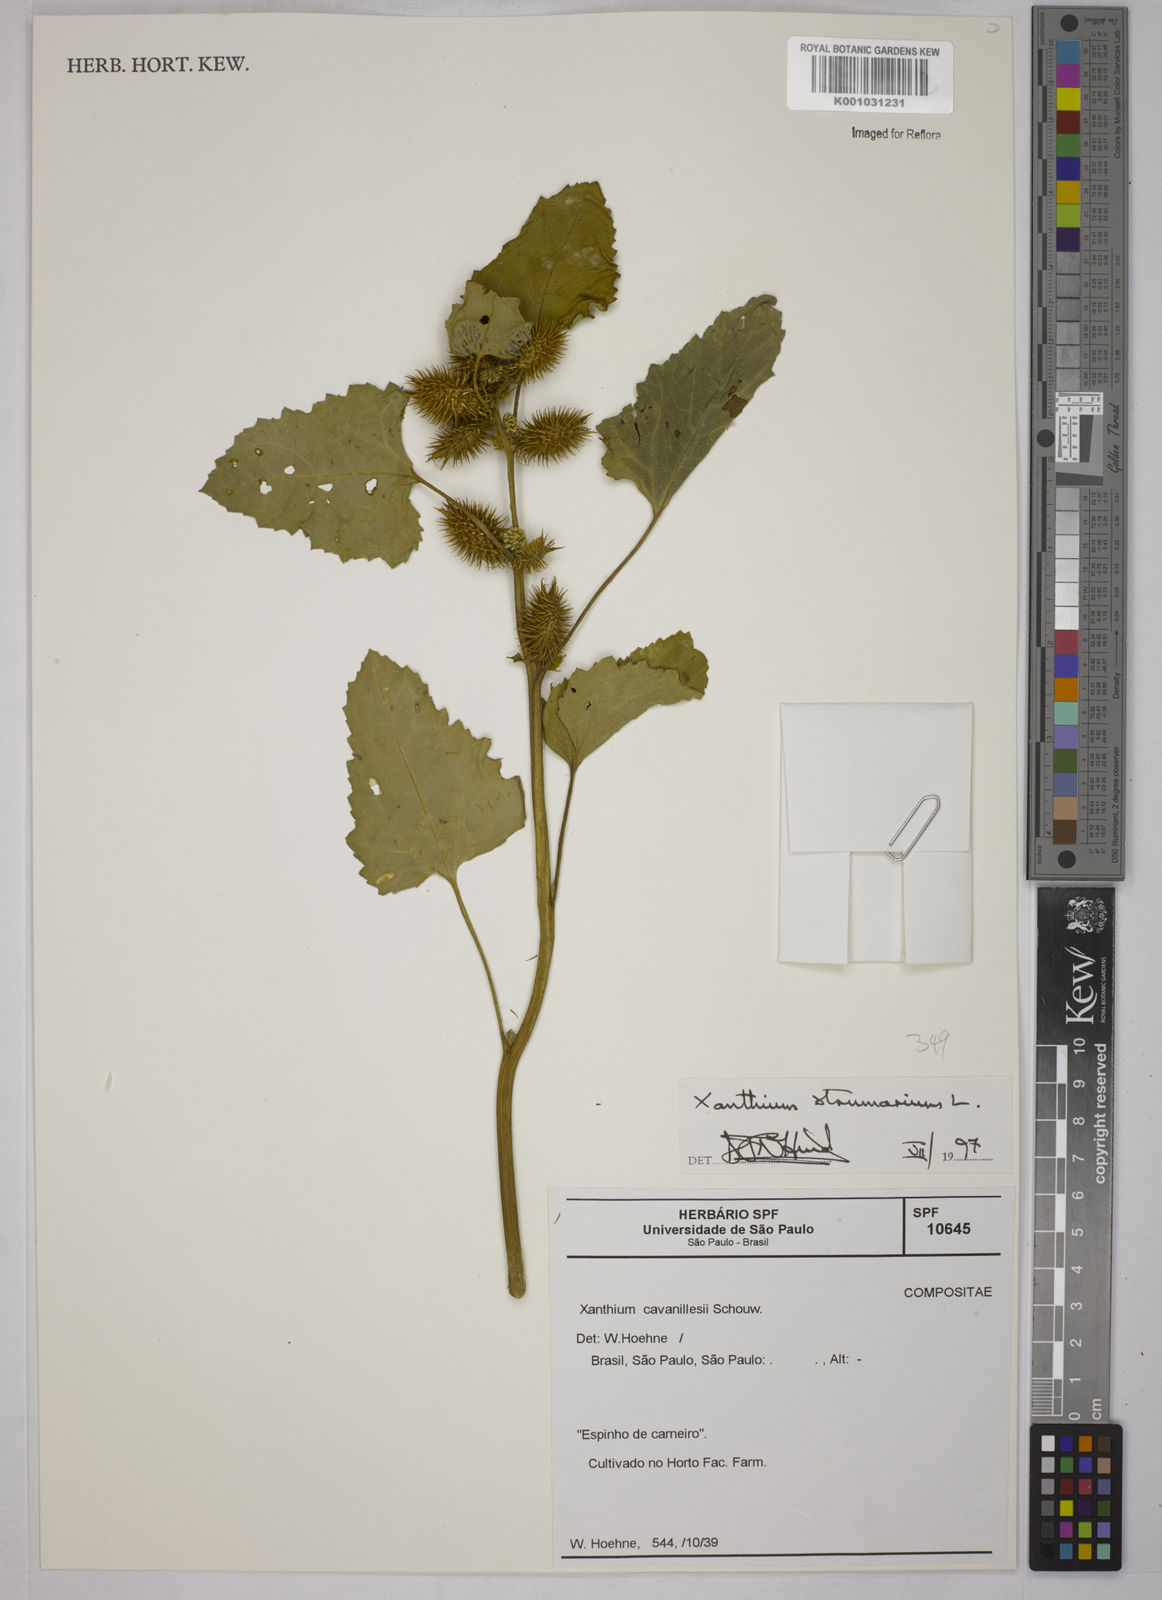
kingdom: Plantae
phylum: Tracheophyta
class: Magnoliopsida
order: Asterales
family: Asteraceae
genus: Xanthium
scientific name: Xanthium strumarium
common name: Rough cocklebur
